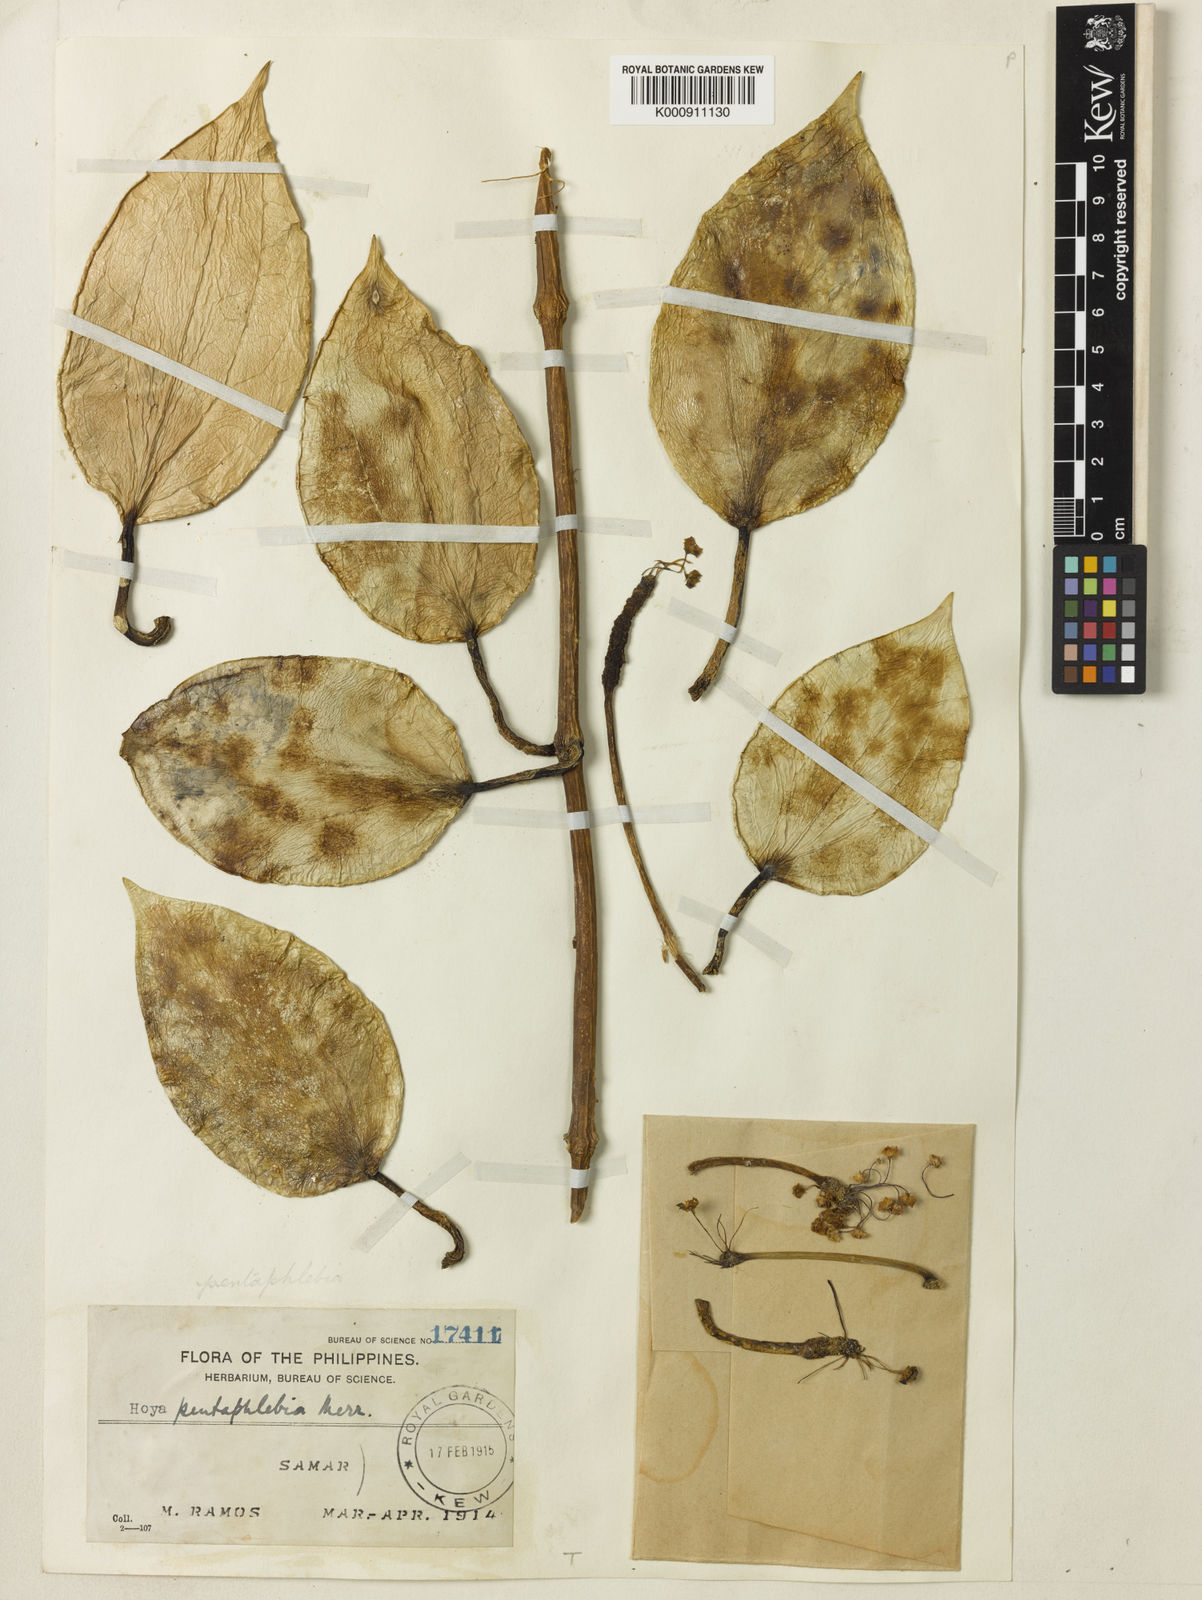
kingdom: Plantae
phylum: Tracheophyta
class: Magnoliopsida
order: Gentianales
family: Apocynaceae
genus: Hoya
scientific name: Hoya pentaphlebia
